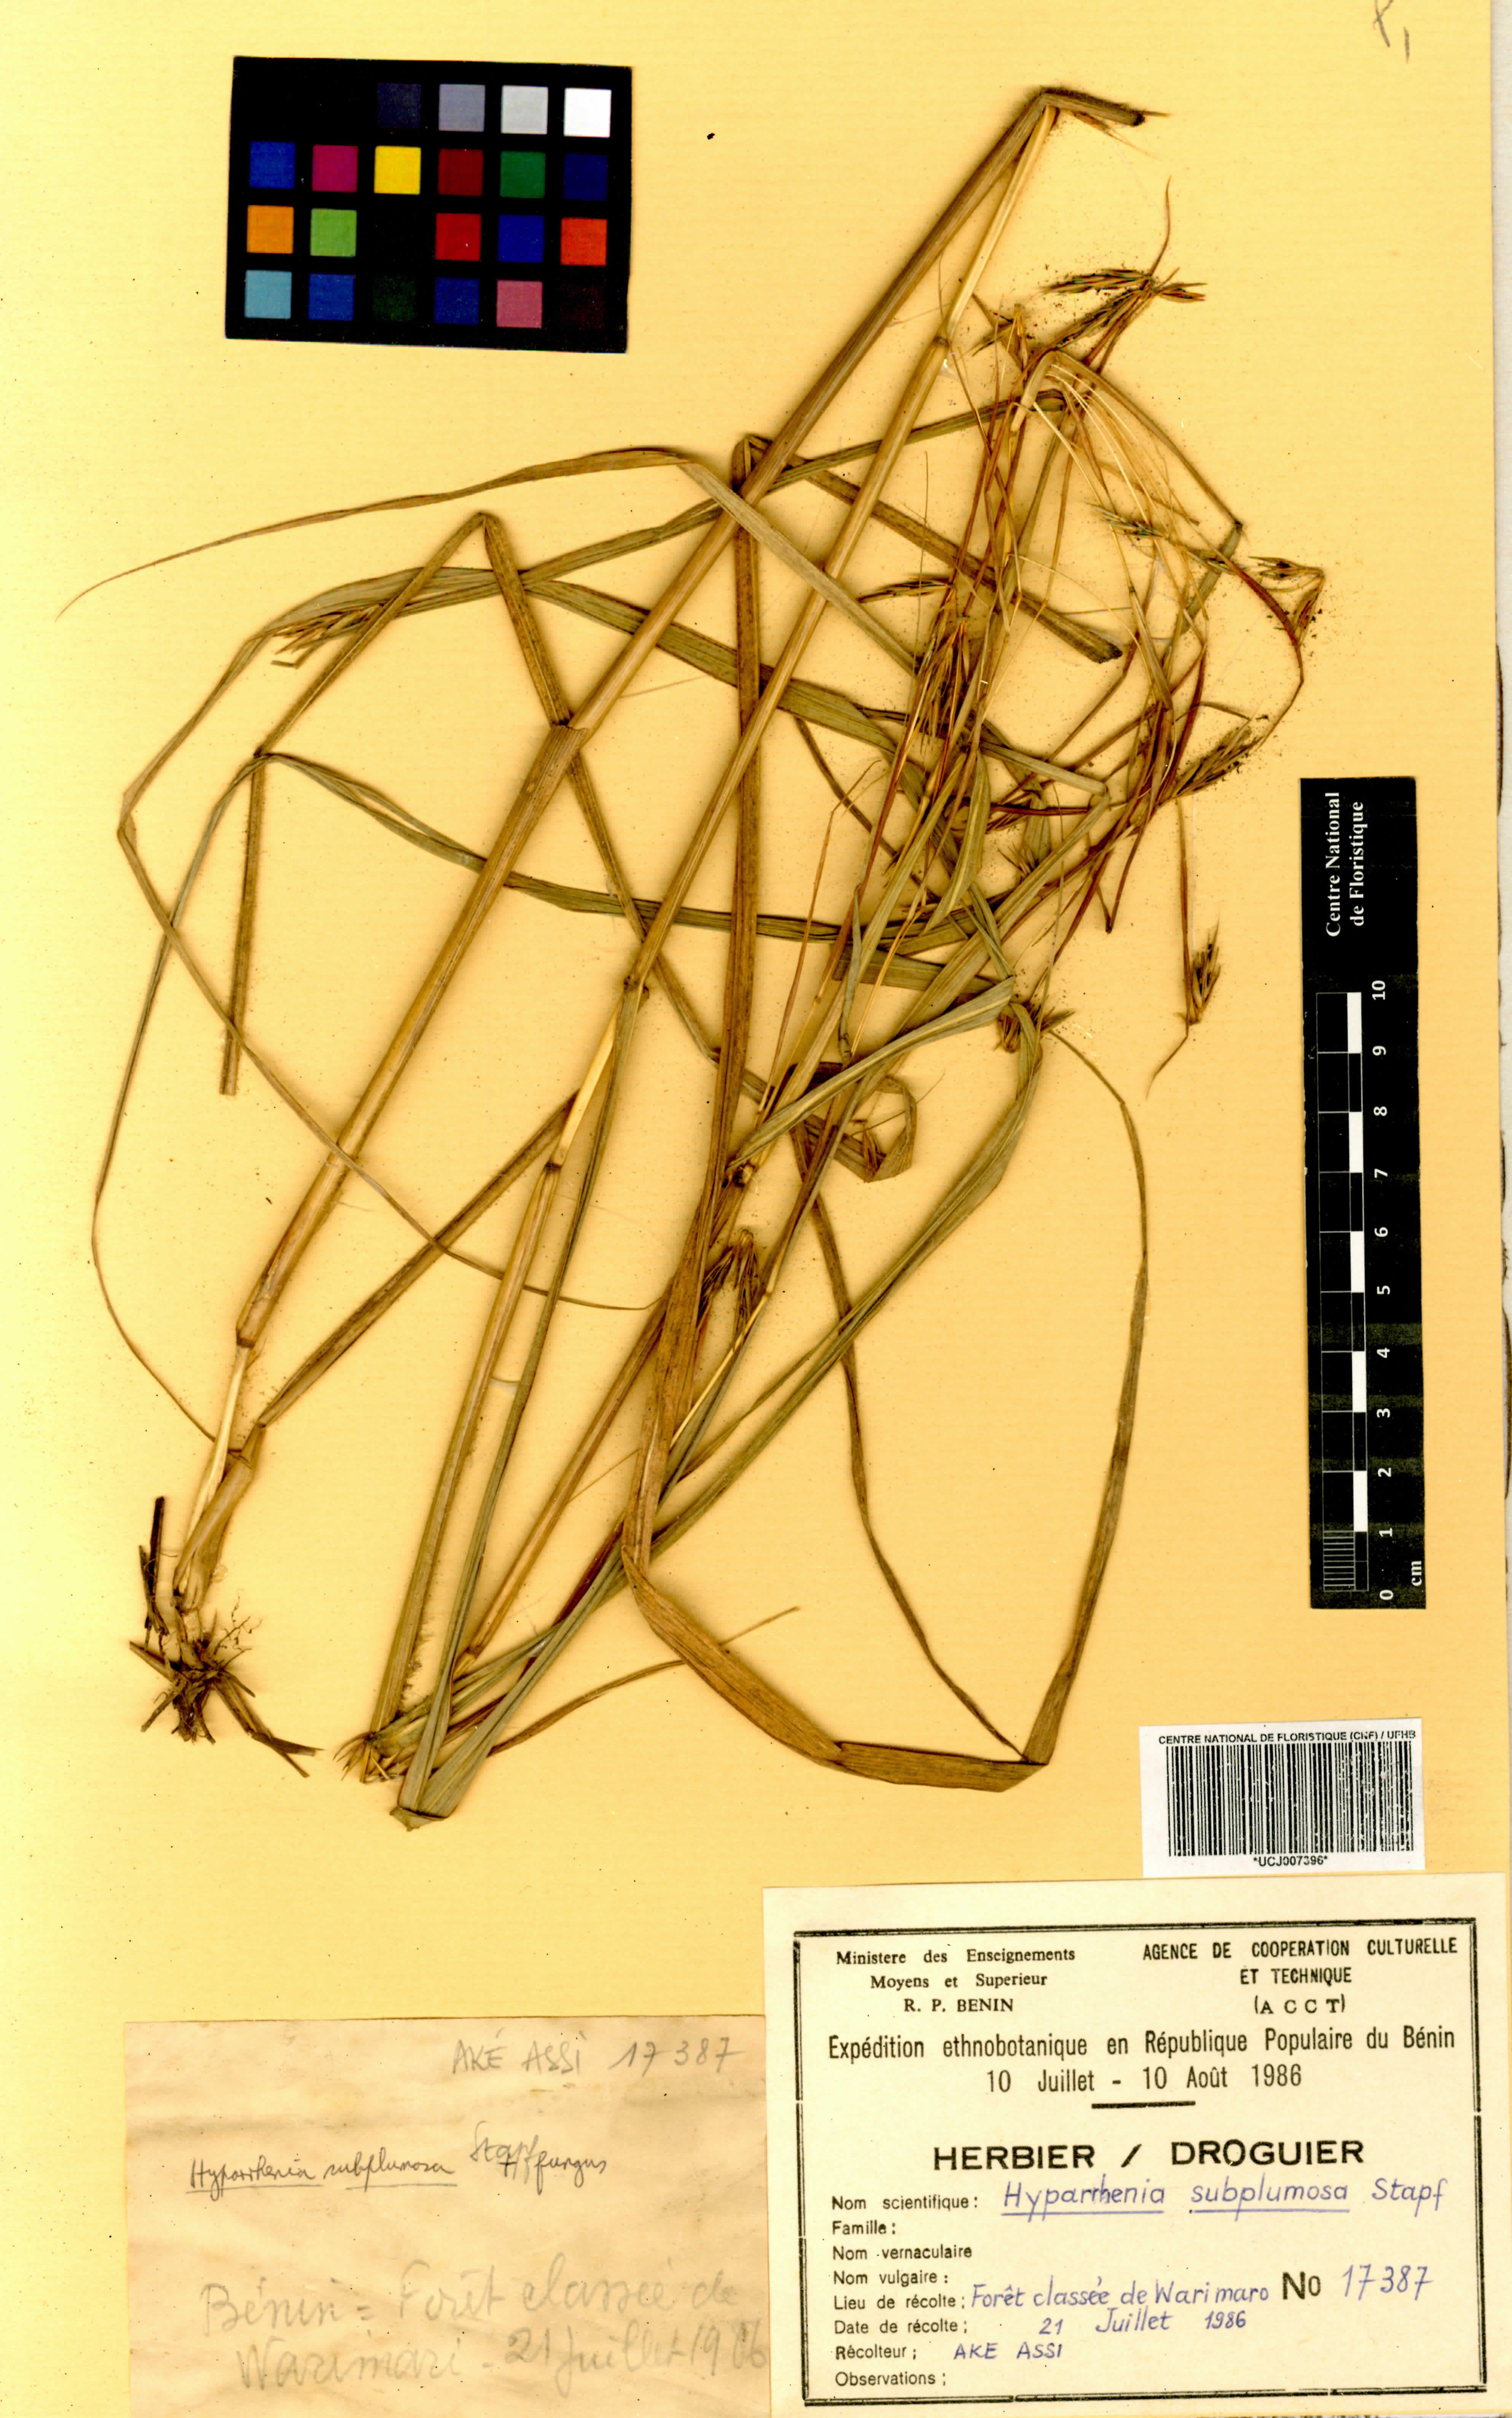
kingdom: Plantae
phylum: Tracheophyta
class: Liliopsida
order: Poales
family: Poaceae
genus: Hyparrhenia
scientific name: Hyparrhenia subplumosa
